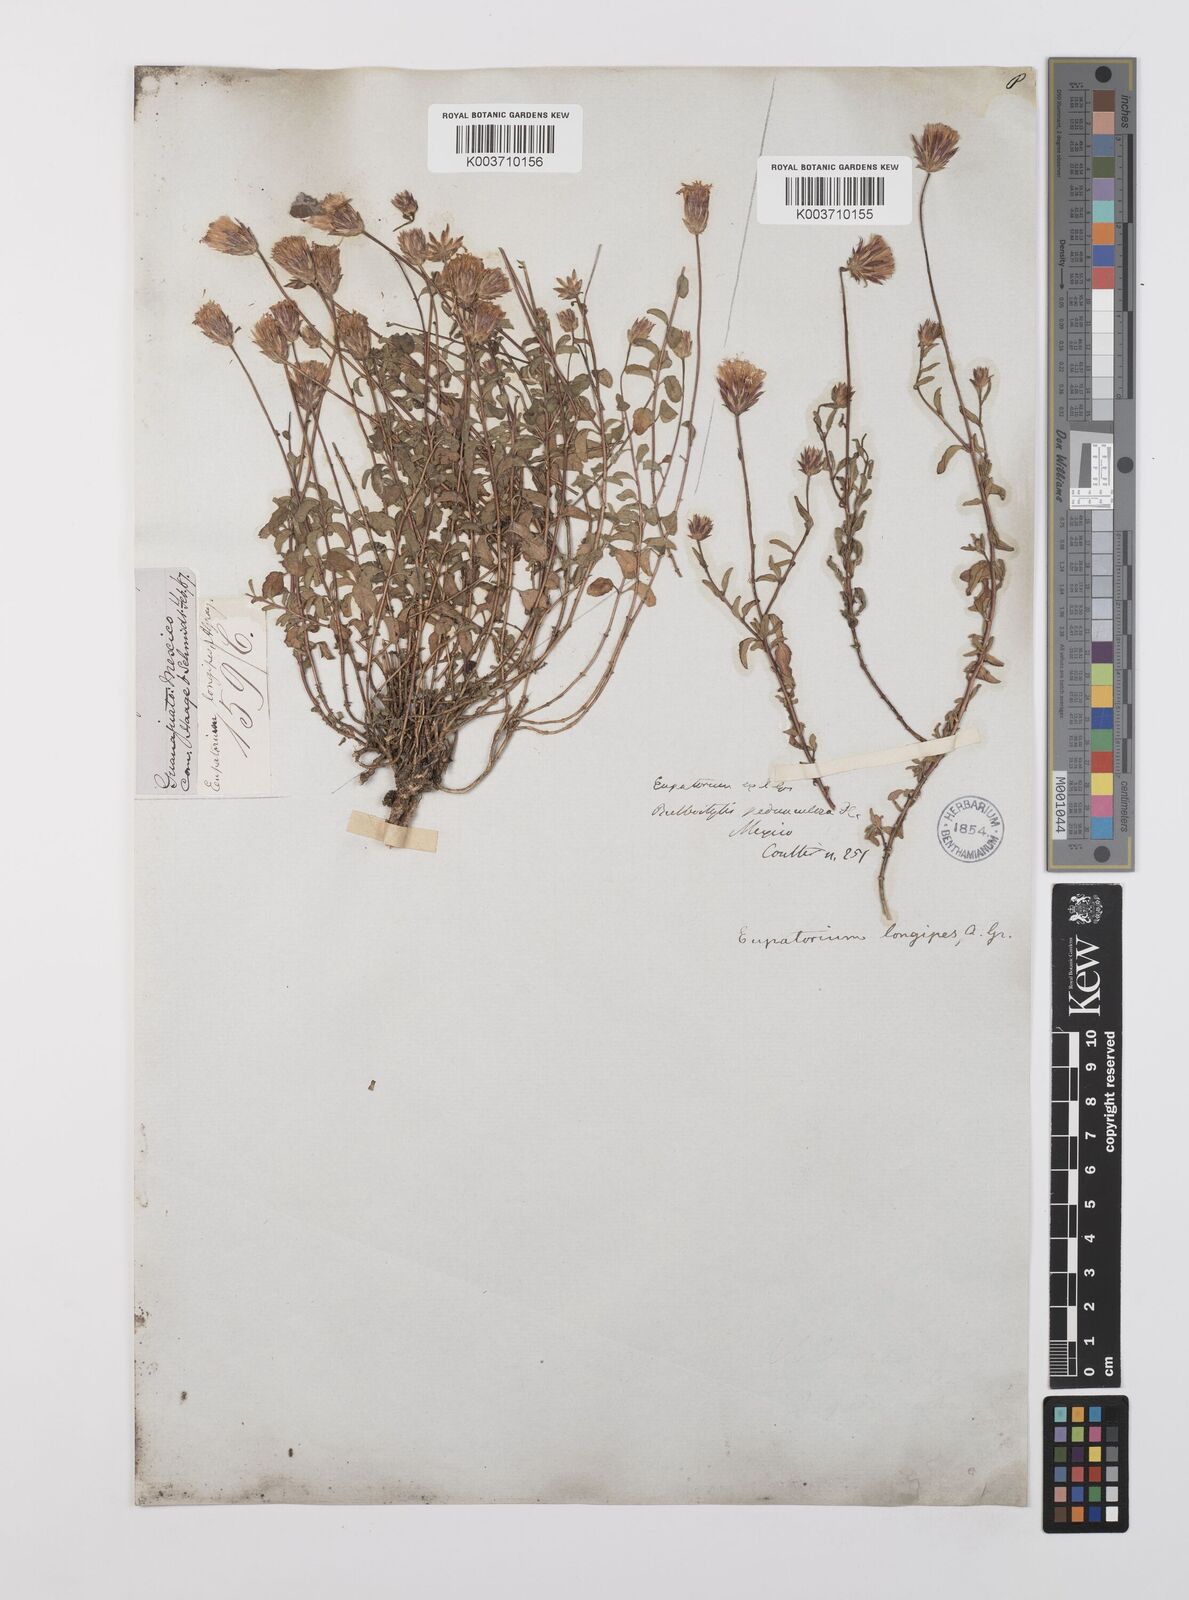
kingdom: Plantae
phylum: Tracheophyta
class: Magnoliopsida
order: Asterales
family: Asteraceae
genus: Brickellia
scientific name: Brickellia pedunculosa
